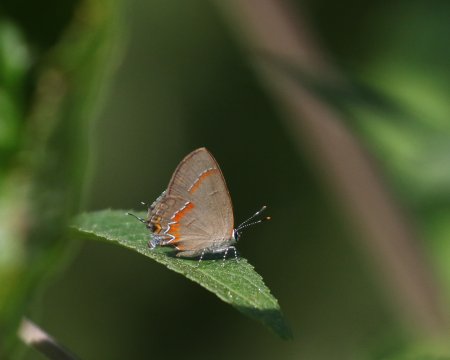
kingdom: Animalia
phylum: Arthropoda
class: Insecta
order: Lepidoptera
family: Lycaenidae
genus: Calycopis
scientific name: Calycopis cecrops
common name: Red-banded Hairstreak
